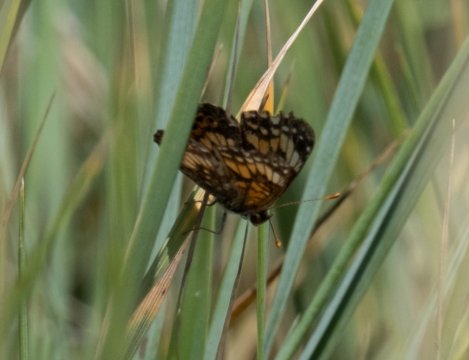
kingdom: Animalia
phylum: Arthropoda
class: Insecta
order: Lepidoptera
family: Nymphalidae
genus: Chlosyne
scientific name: Chlosyne gorgone
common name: Gorgone Checkerspot
